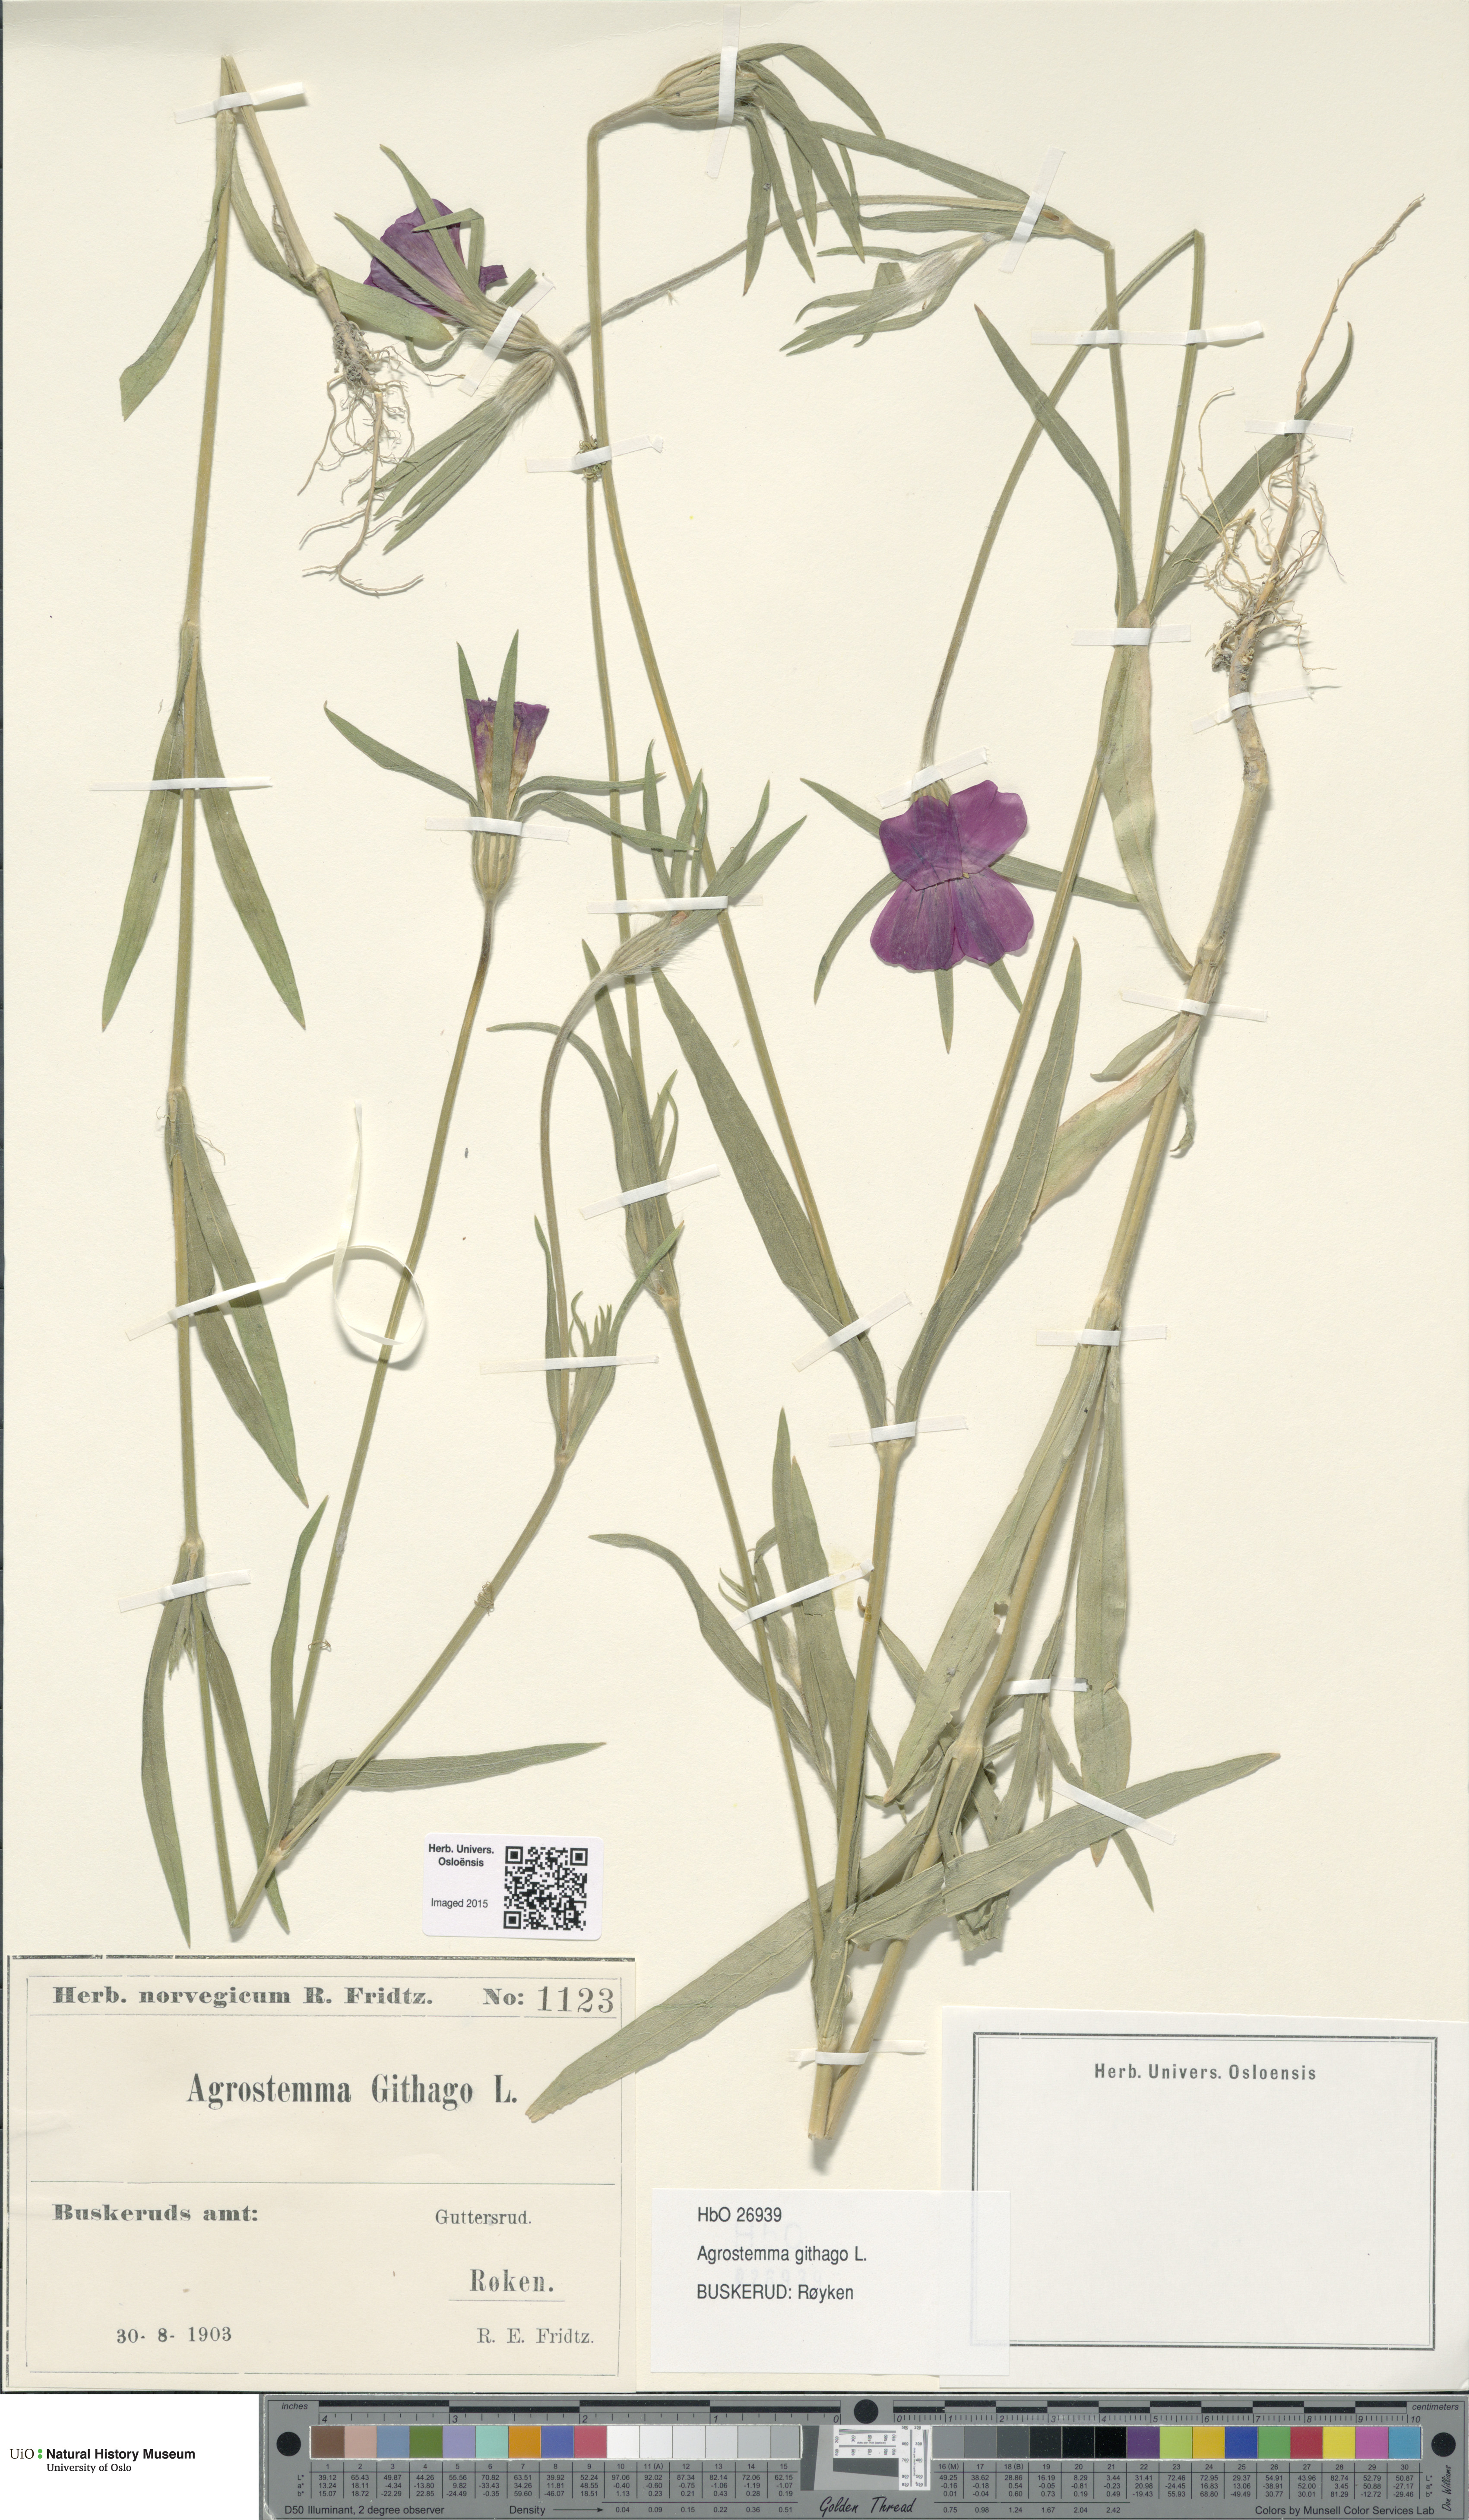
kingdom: Plantae
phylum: Tracheophyta
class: Magnoliopsida
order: Caryophyllales
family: Caryophyllaceae
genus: Agrostemma
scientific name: Agrostemma githago
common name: Common corncockle
